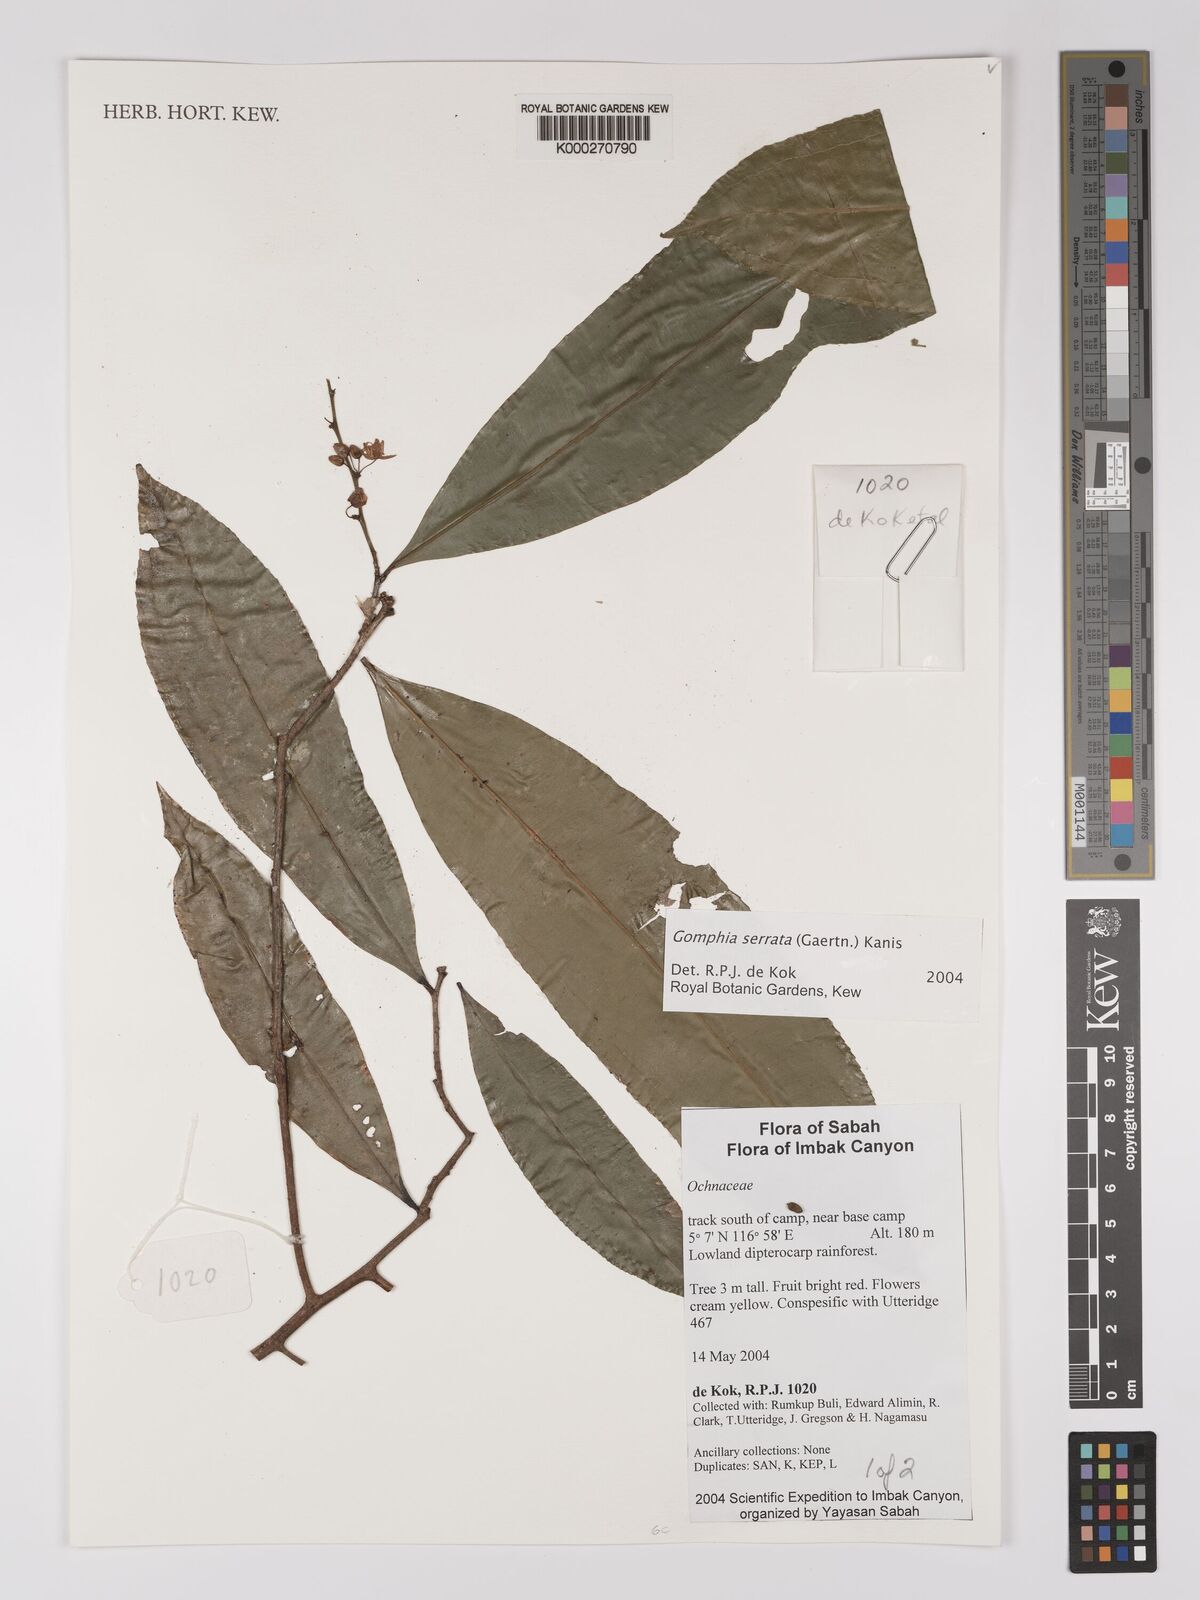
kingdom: Plantae
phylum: Tracheophyta
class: Magnoliopsida
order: Malpighiales
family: Ochnaceae
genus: Gomphia
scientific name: Gomphia serrata
